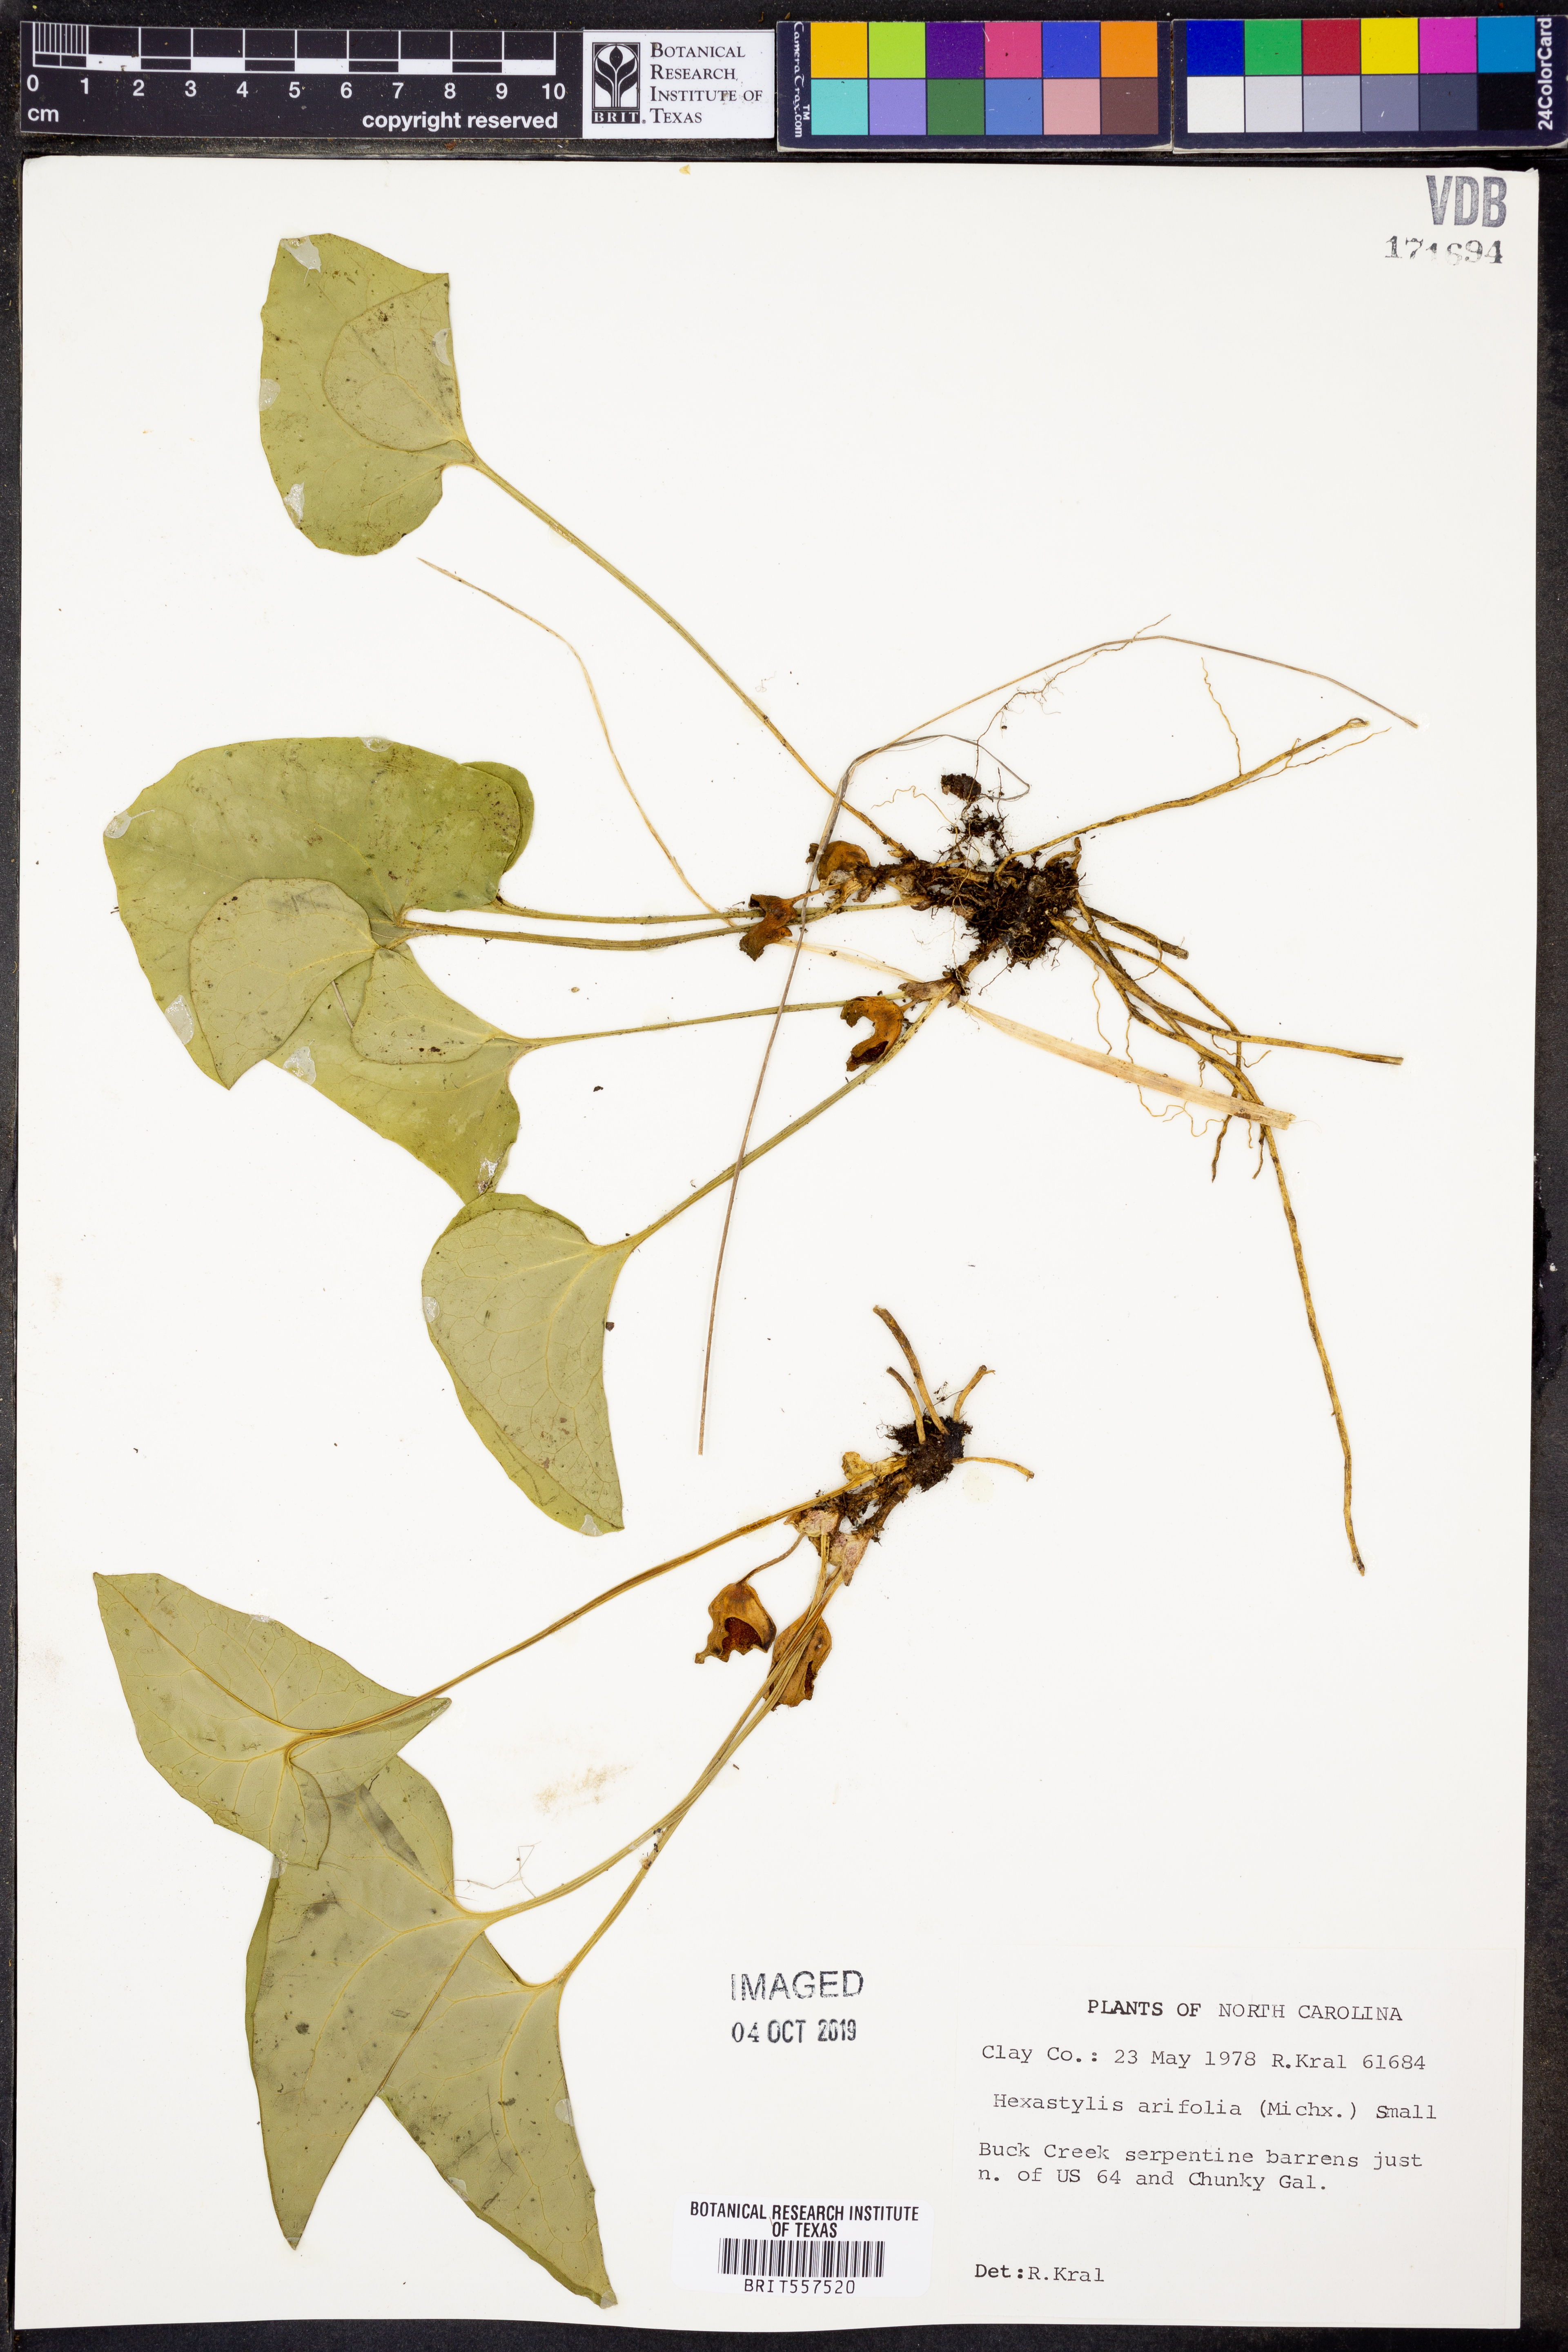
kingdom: Plantae
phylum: Tracheophyta
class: Magnoliopsida
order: Piperales
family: Aristolochiaceae
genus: Hexastylis
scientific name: Hexastylis arifolia
